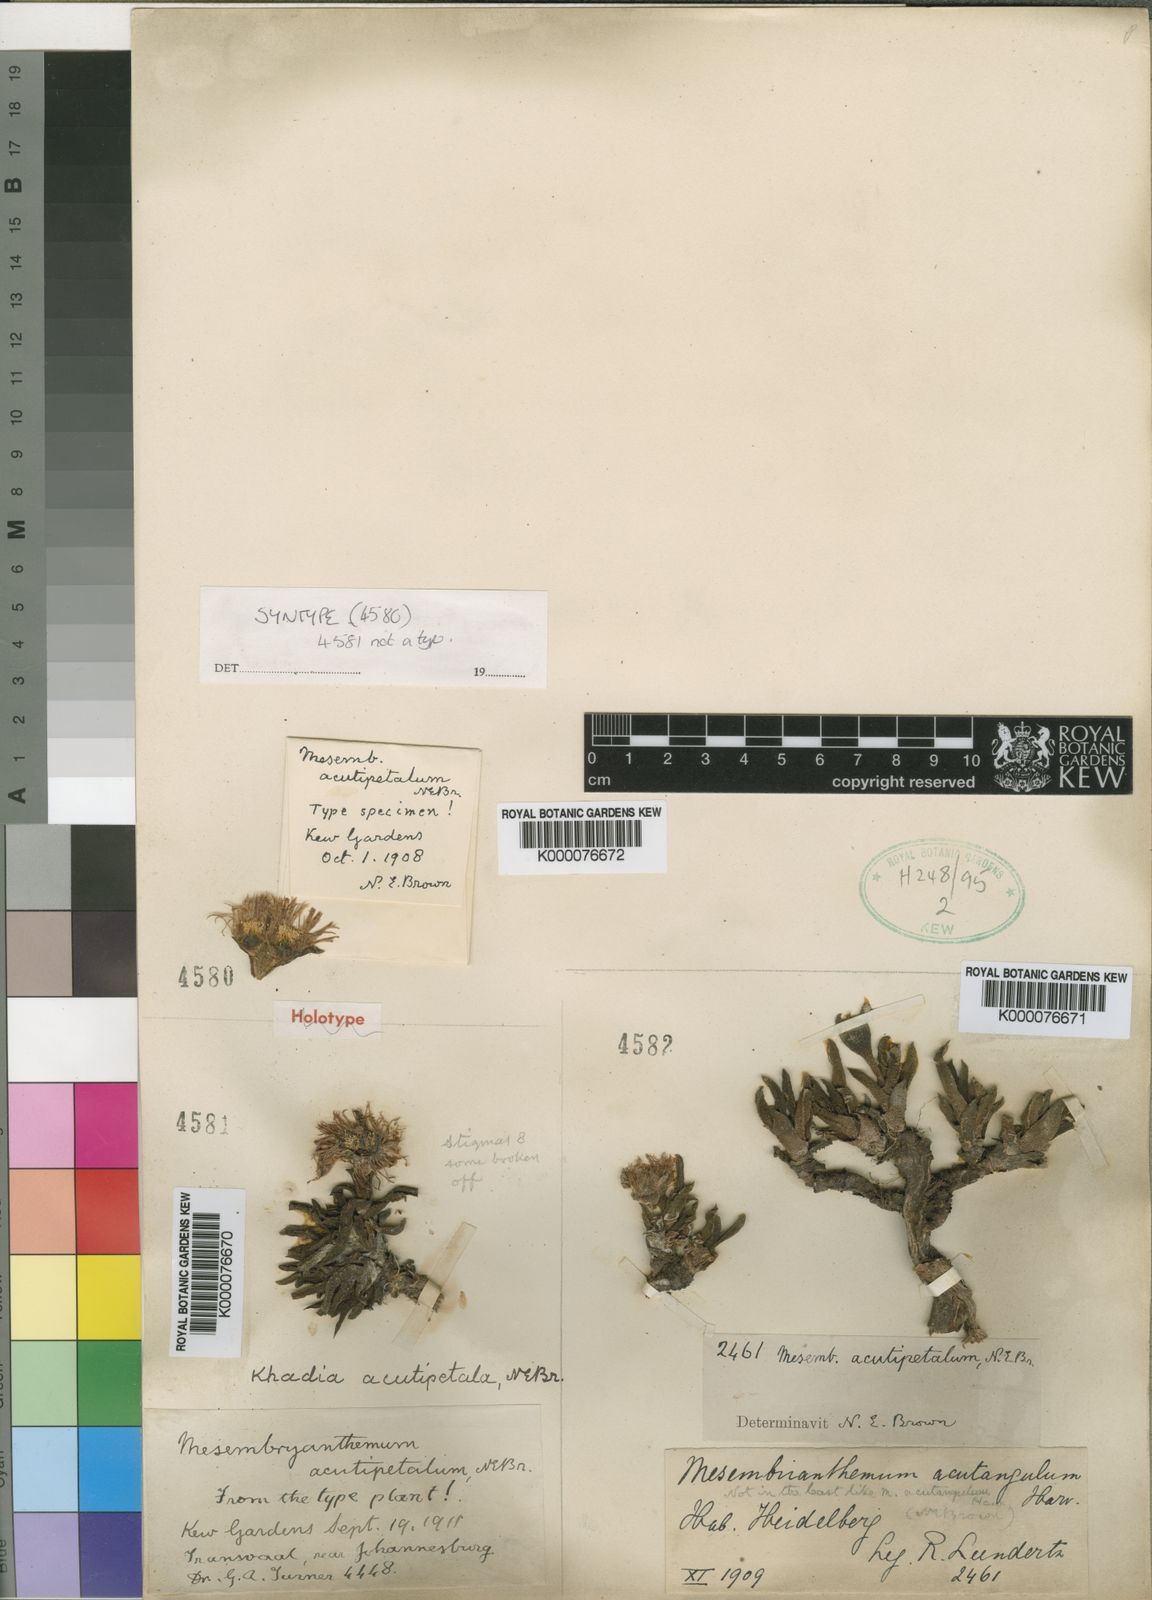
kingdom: Plantae
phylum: Tracheophyta
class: Magnoliopsida
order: Caryophyllales
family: Aizoaceae
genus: Khadia
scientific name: Khadia acutipetala
